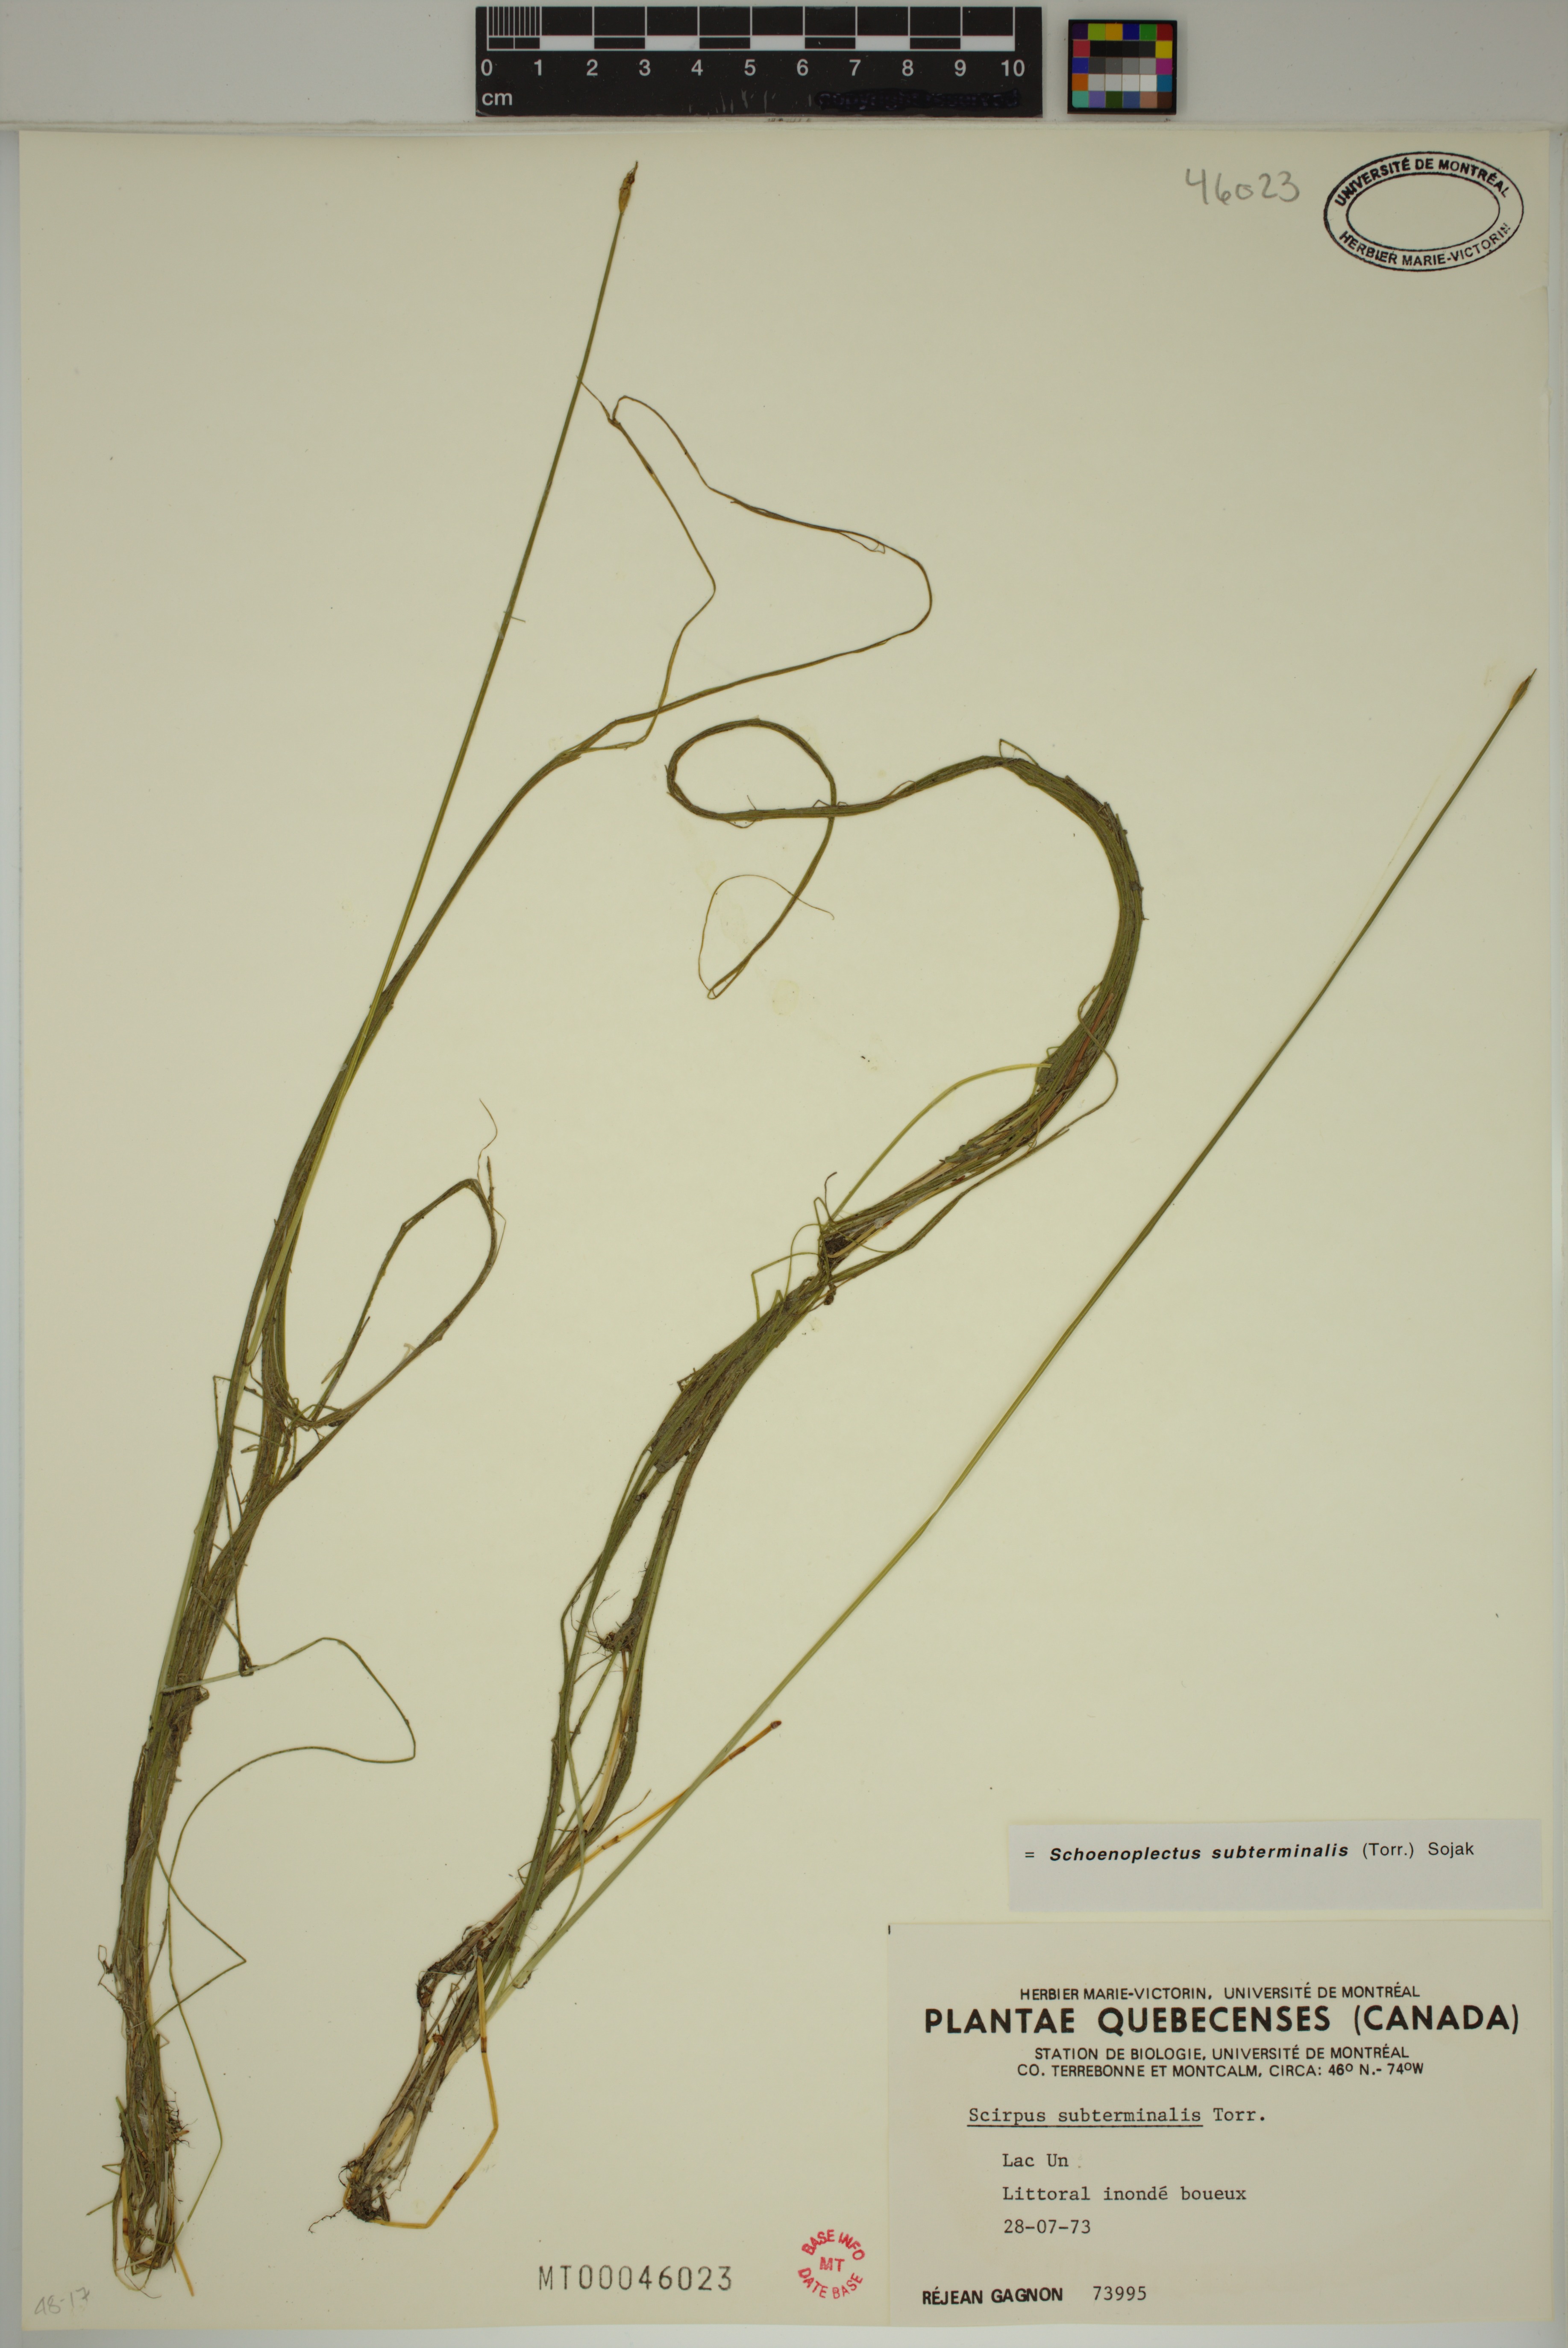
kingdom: Plantae
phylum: Tracheophyta
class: Liliopsida
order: Poales
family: Cyperaceae
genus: Schoenoplectus
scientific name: Schoenoplectus subterminalis
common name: Swaying bulrush
